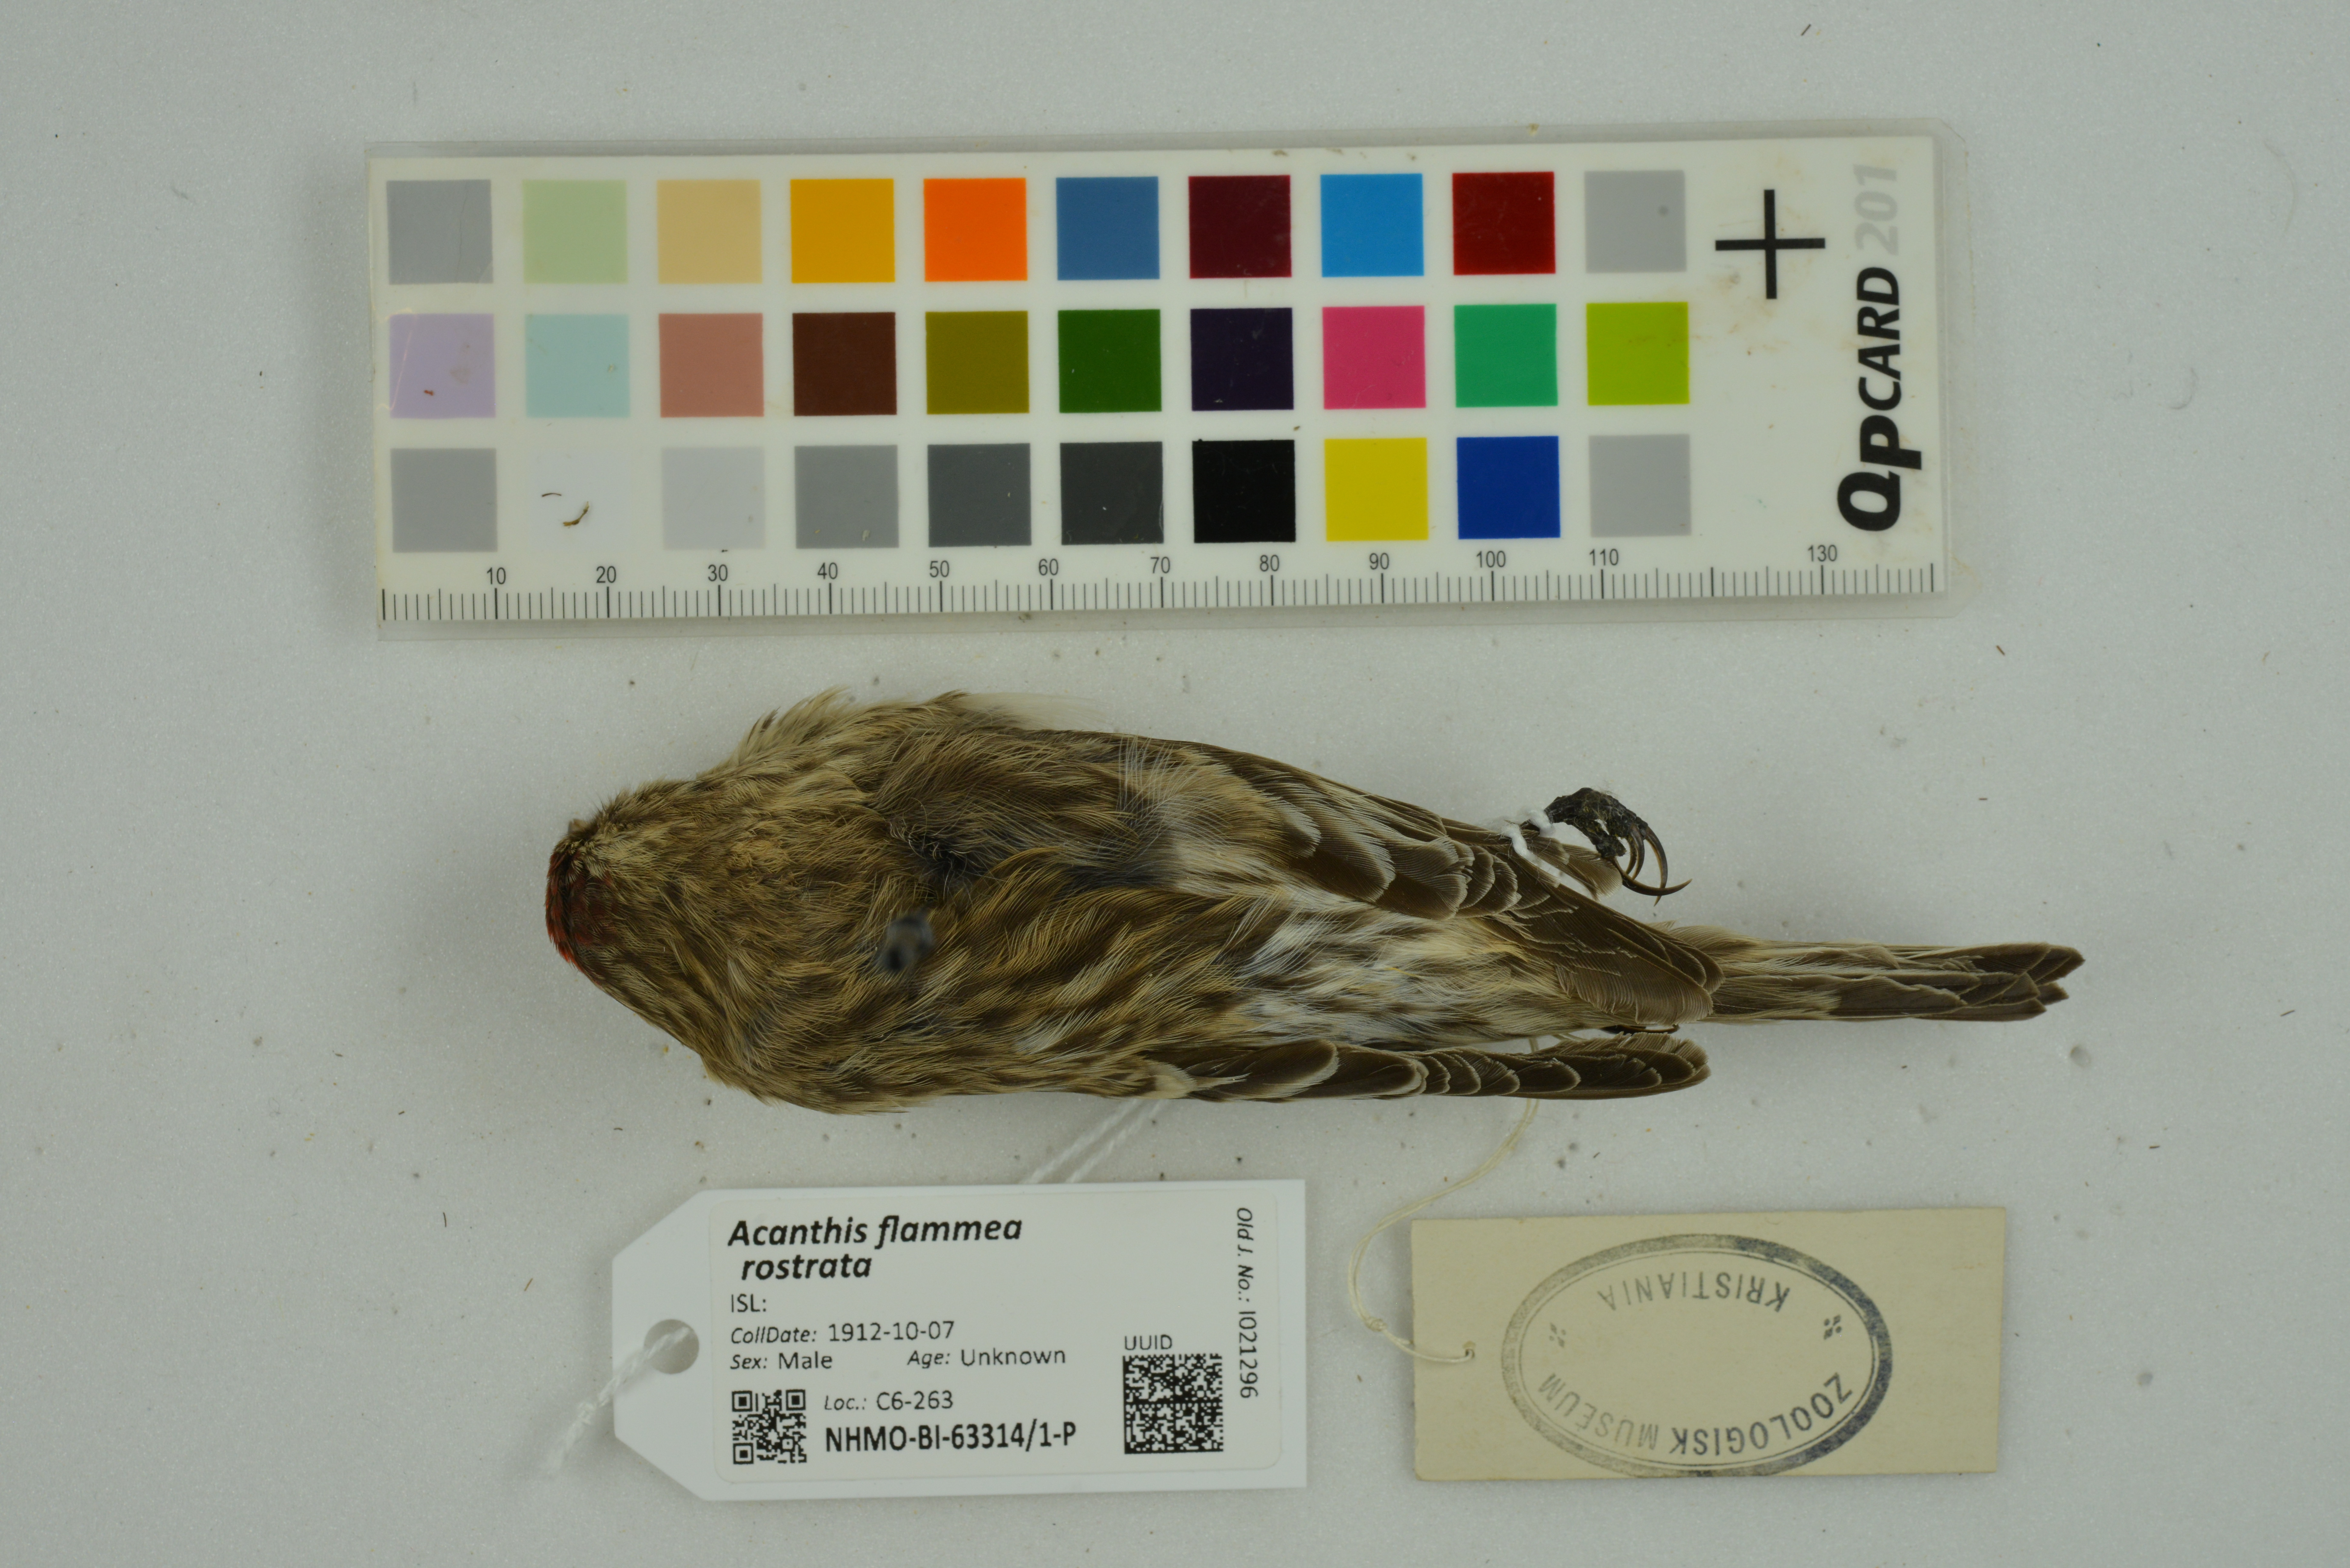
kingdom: Animalia
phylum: Chordata
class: Aves
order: Passeriformes
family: Fringillidae
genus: Acanthis
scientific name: Acanthis flammea
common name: Common redpoll
